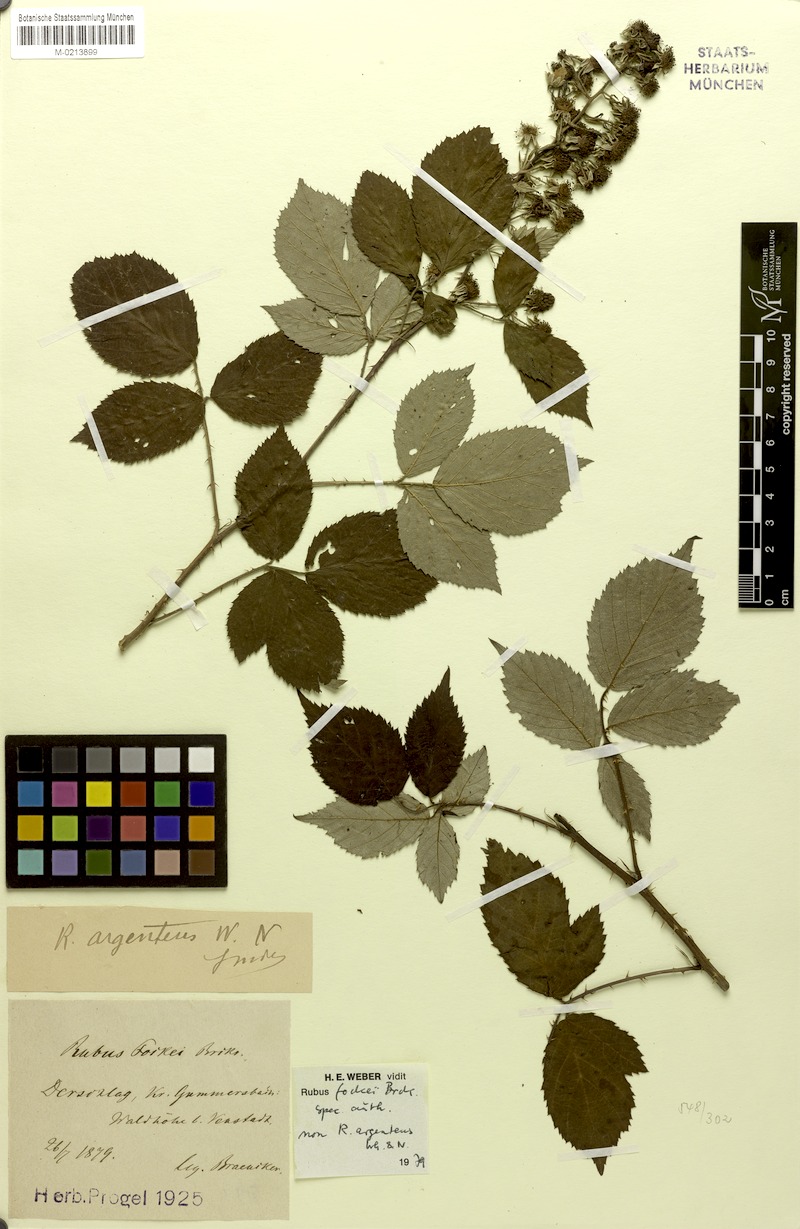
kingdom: Plantae
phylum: Tracheophyta
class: Magnoliopsida
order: Rosales
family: Rosaceae
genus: Rubus
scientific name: Rubus fockei
